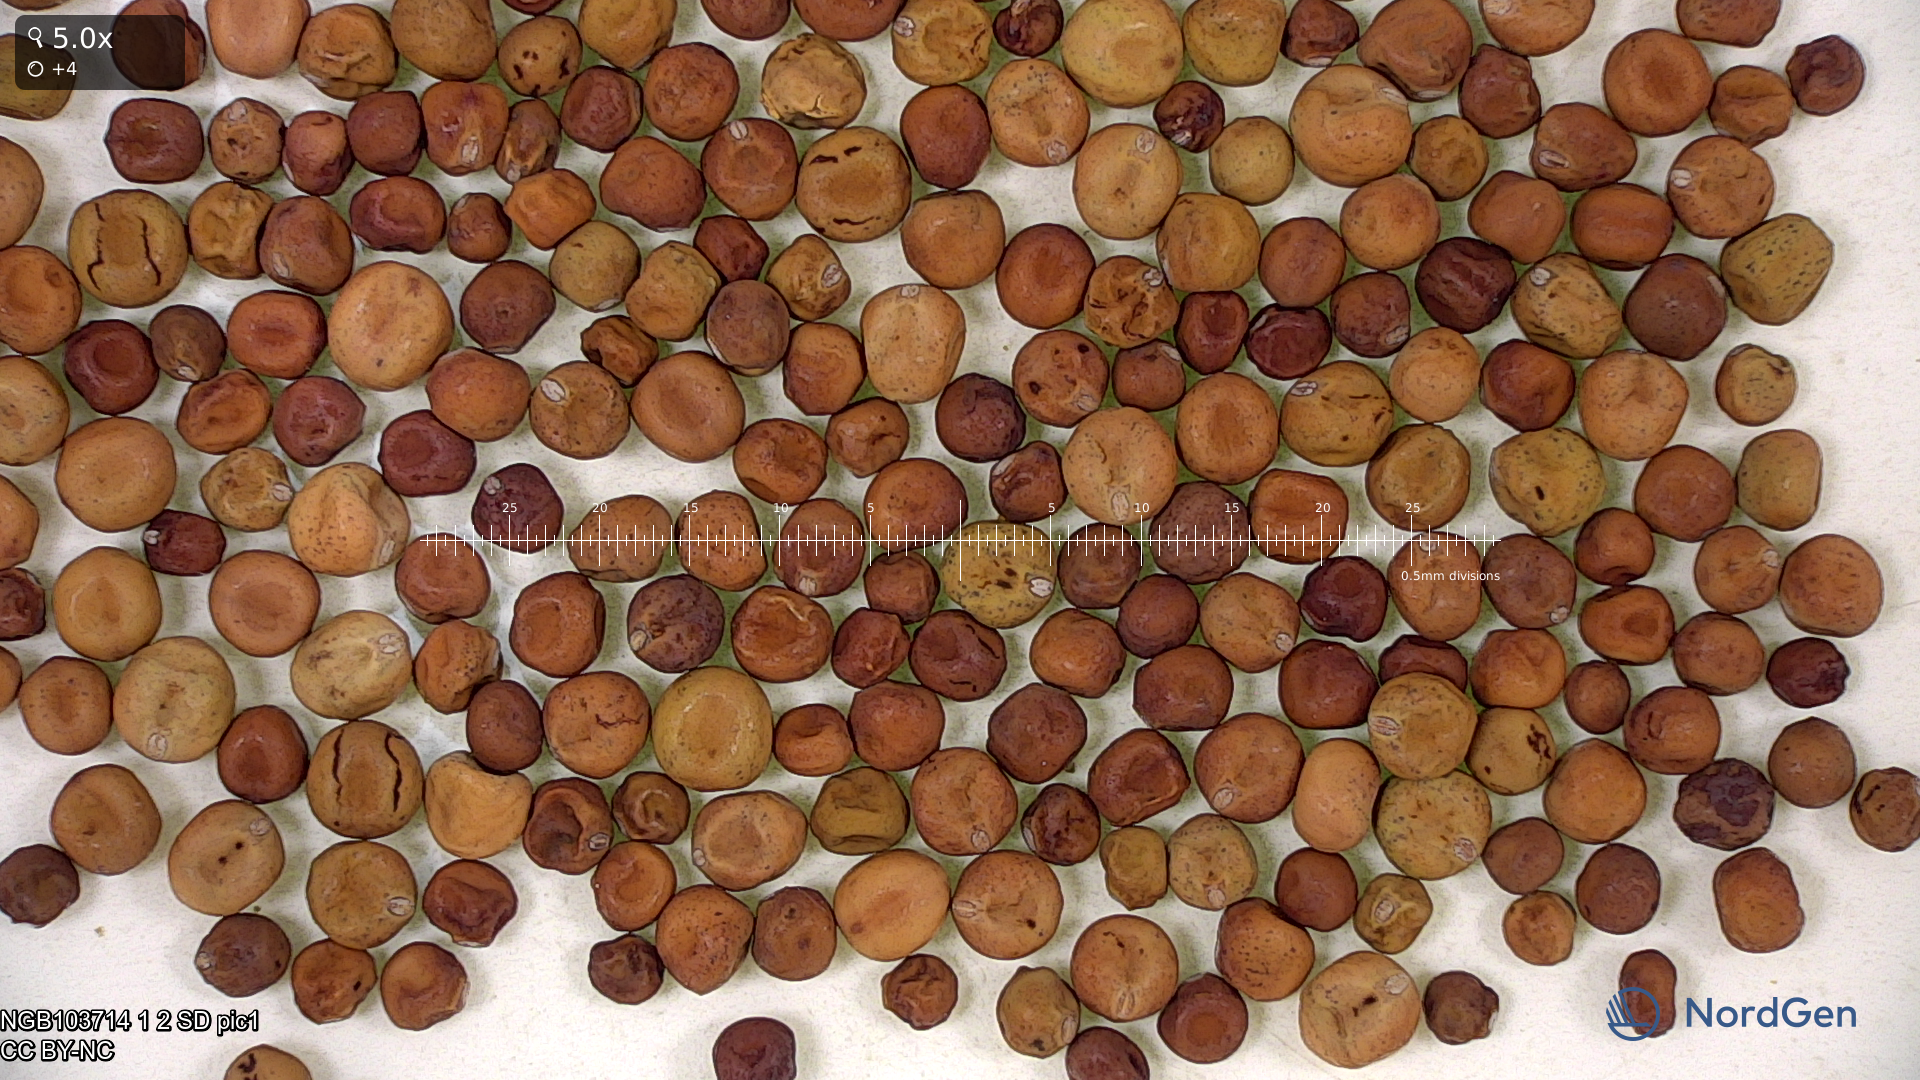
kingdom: Plantae
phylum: Tracheophyta
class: Magnoliopsida
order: Fabales
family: Fabaceae
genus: Lathyrus
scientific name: Lathyrus oleraceus
